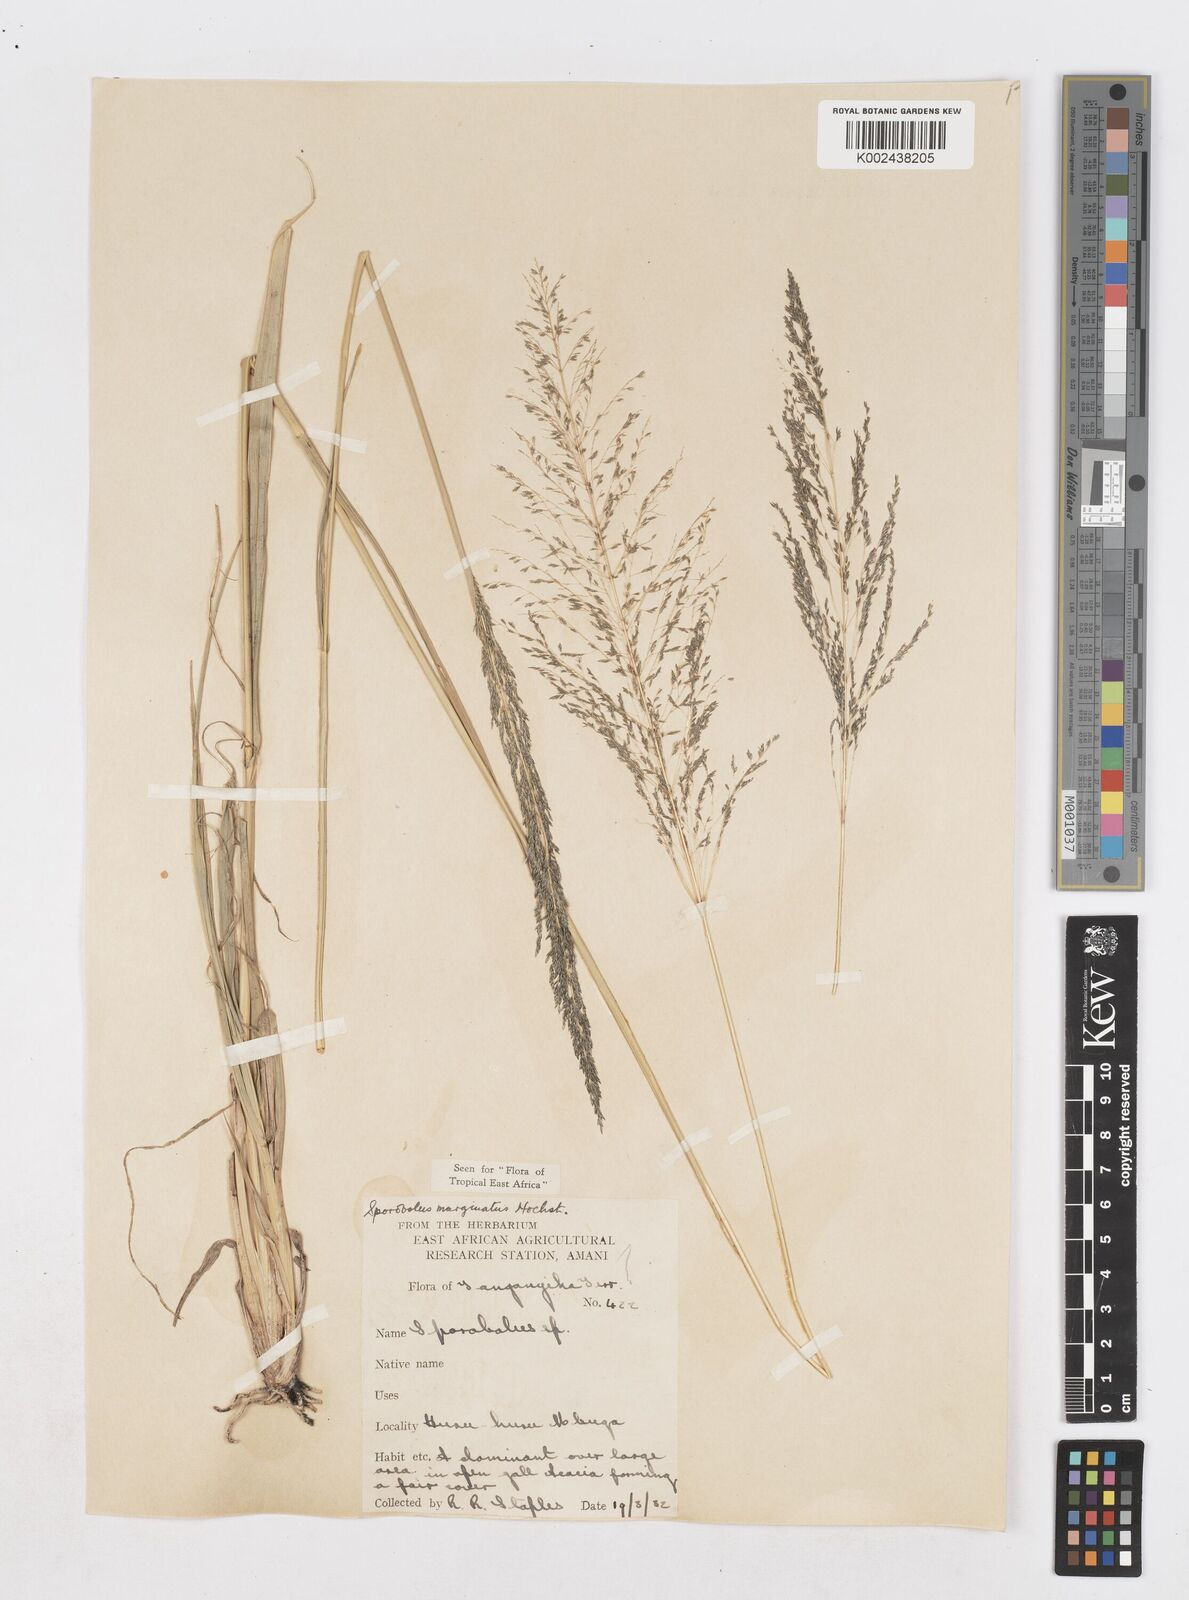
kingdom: Plantae
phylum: Tracheophyta
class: Liliopsida
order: Poales
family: Poaceae
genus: Sporobolus
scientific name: Sporobolus ioclados
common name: Pan dropseed
